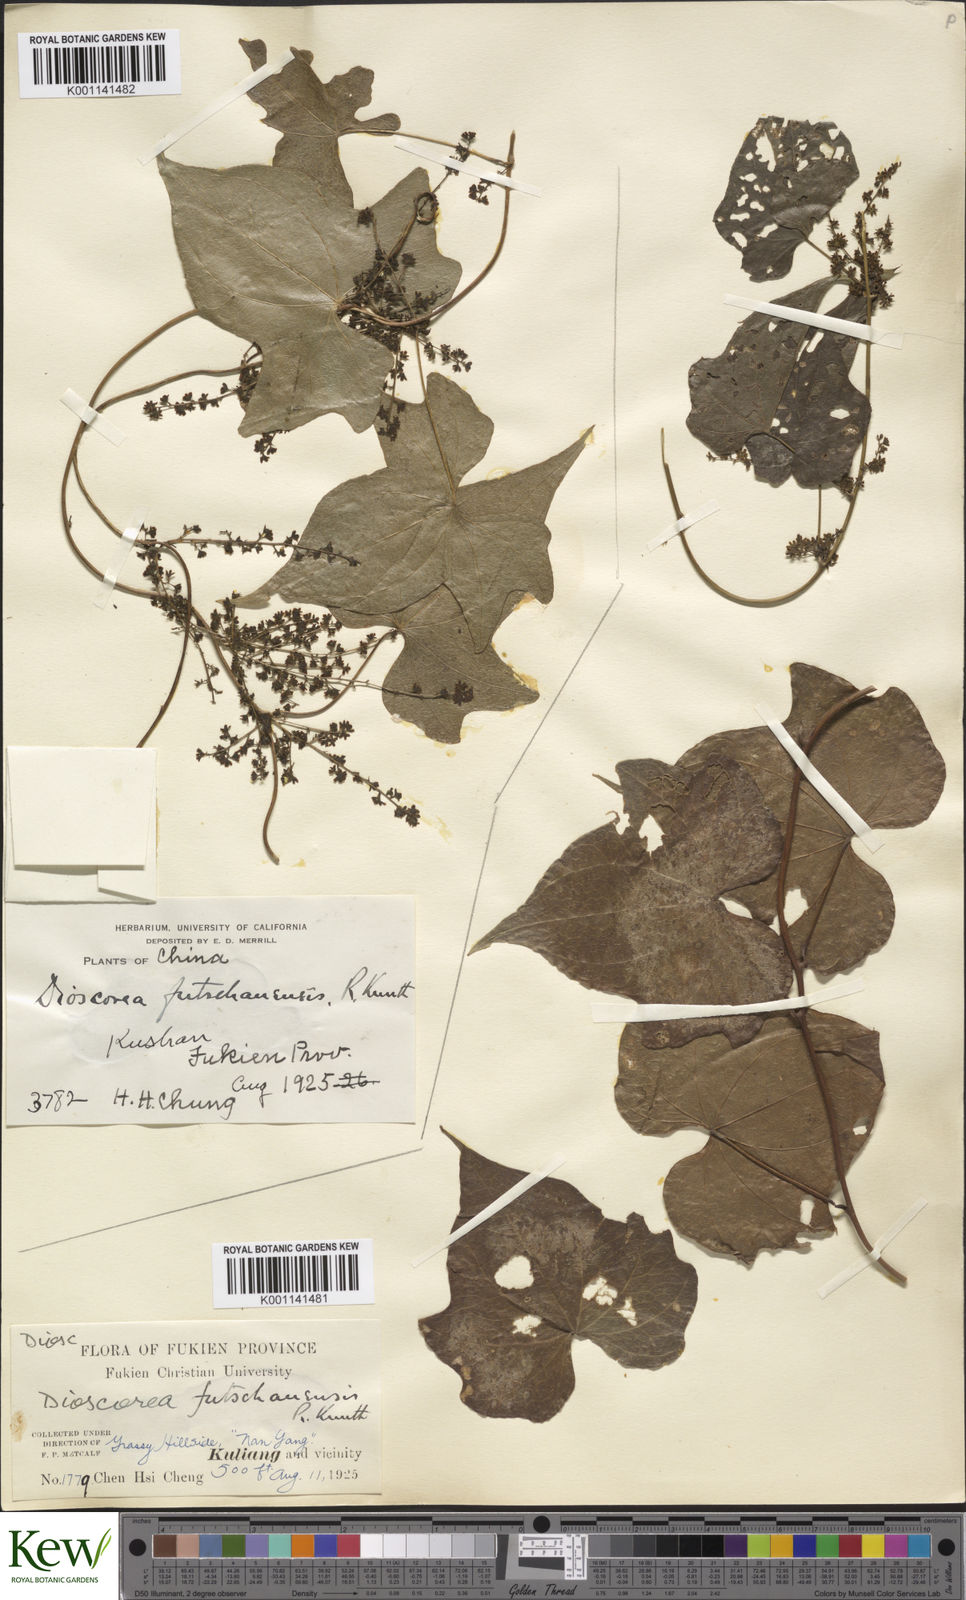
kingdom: Plantae
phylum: Tracheophyta
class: Liliopsida
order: Dioscoreales
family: Dioscoreaceae
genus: Dioscorea
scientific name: Dioscorea futschauensis
